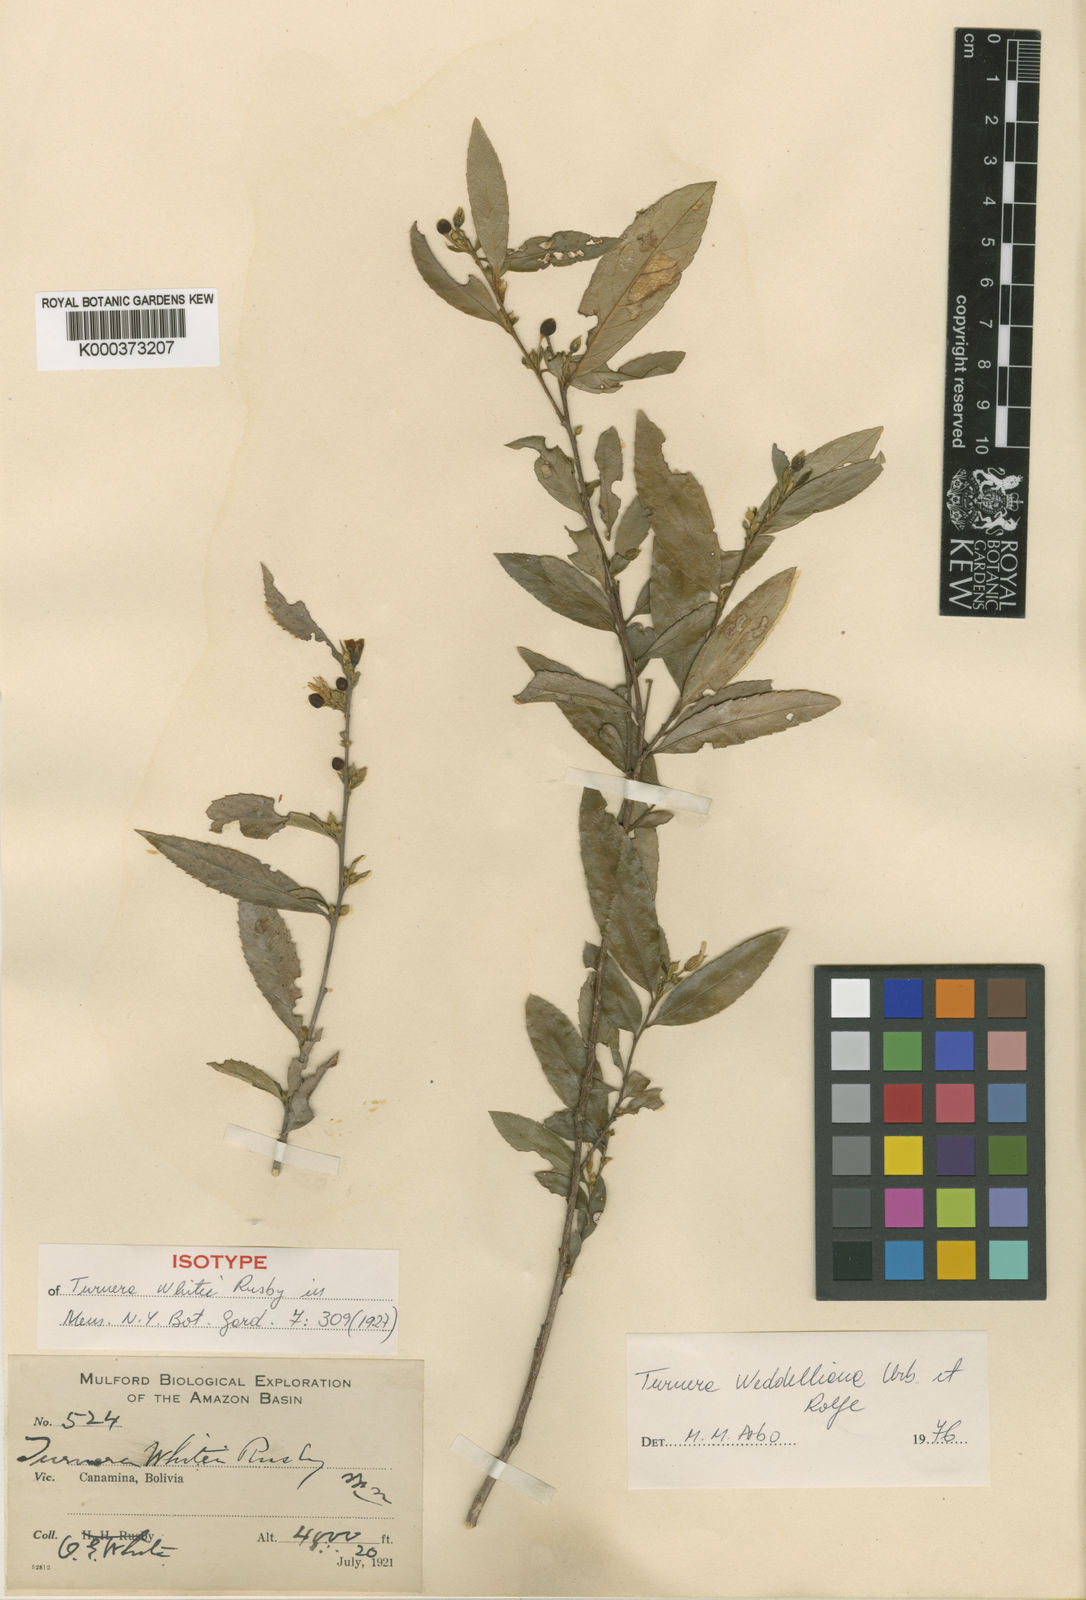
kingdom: Plantae
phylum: Tracheophyta
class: Magnoliopsida
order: Malpighiales
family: Turneraceae
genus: Turnera
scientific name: Turnera weddelliana
